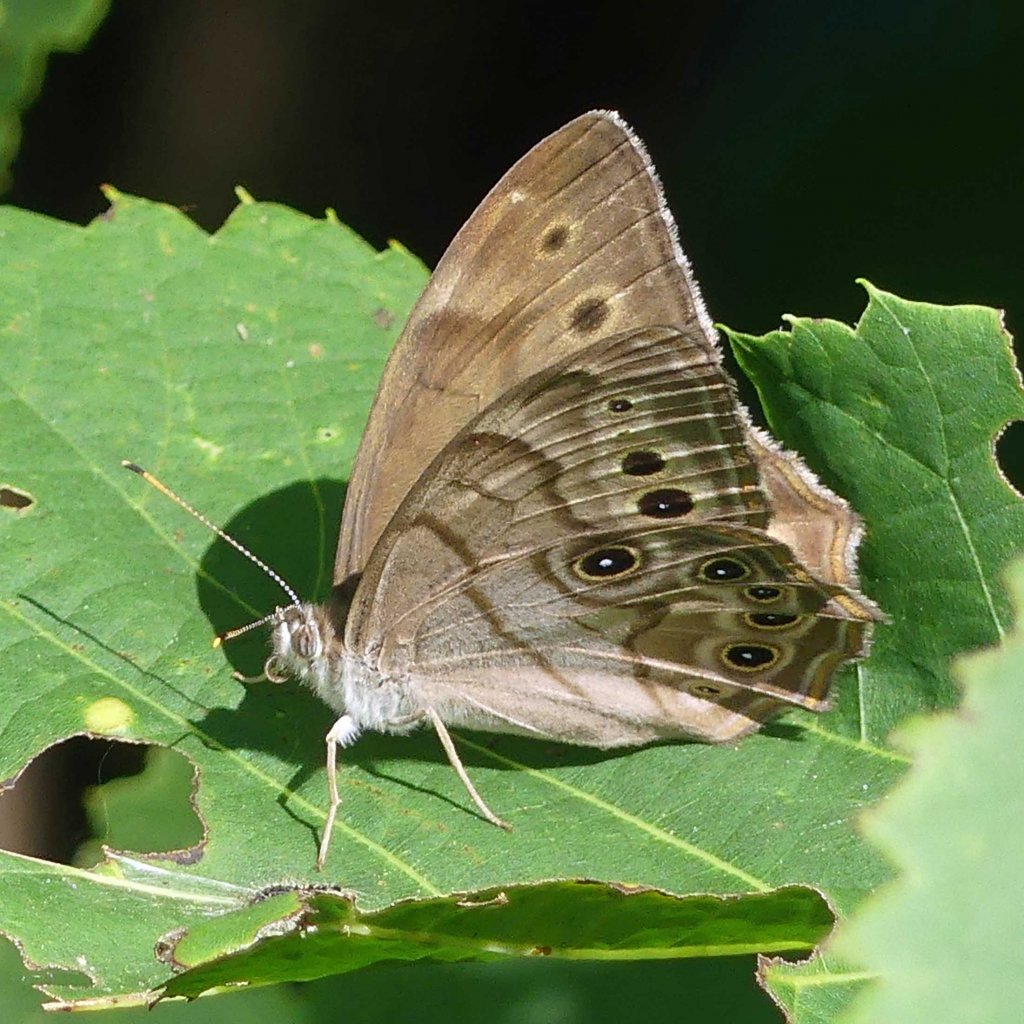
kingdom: Animalia
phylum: Arthropoda
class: Insecta
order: Lepidoptera
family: Nymphalidae
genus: Lethe
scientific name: Lethe anthedon
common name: Northern Pearly-Eye
